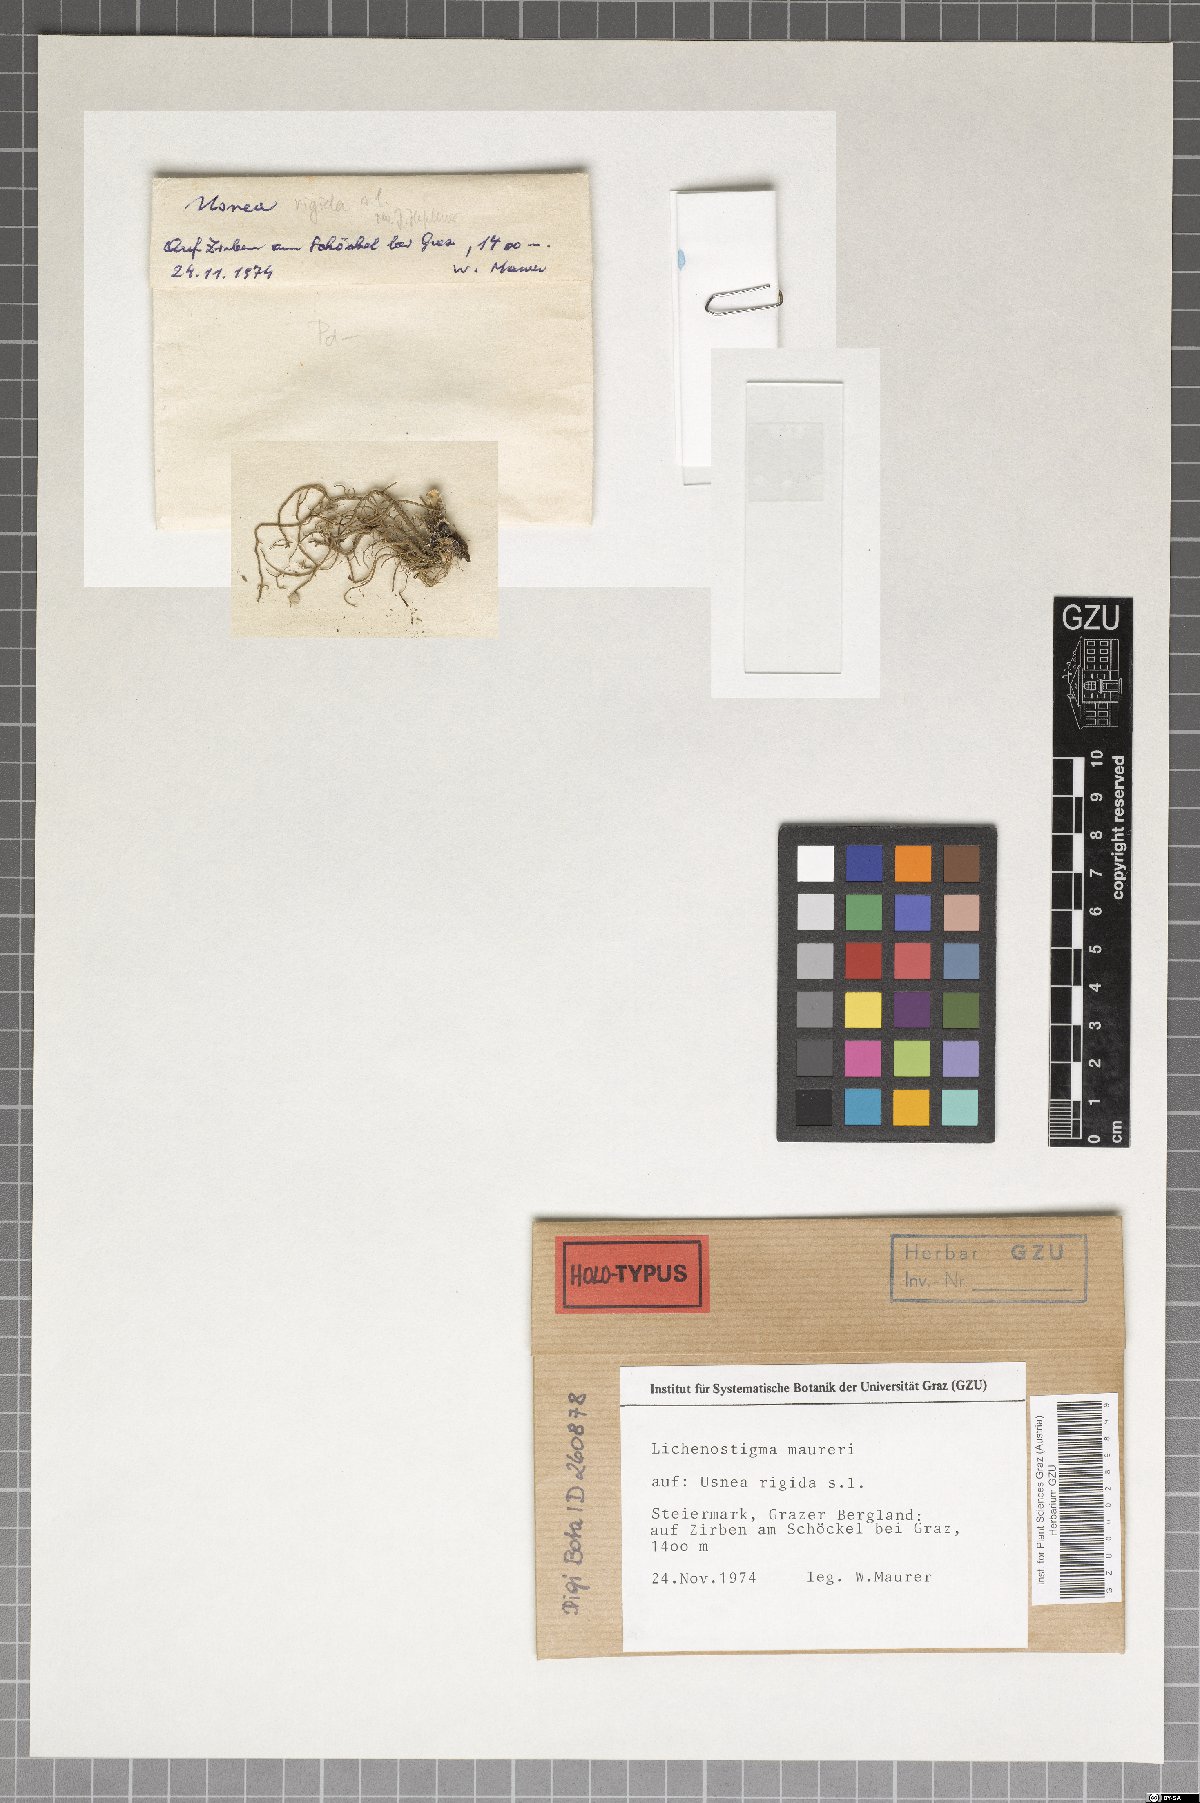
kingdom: Fungi
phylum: Ascomycota
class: Arthoniomycetes
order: Lichenostigmatales
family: Phaeococcomycetaceae
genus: Lichenostigma
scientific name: Lichenostigma maureri
